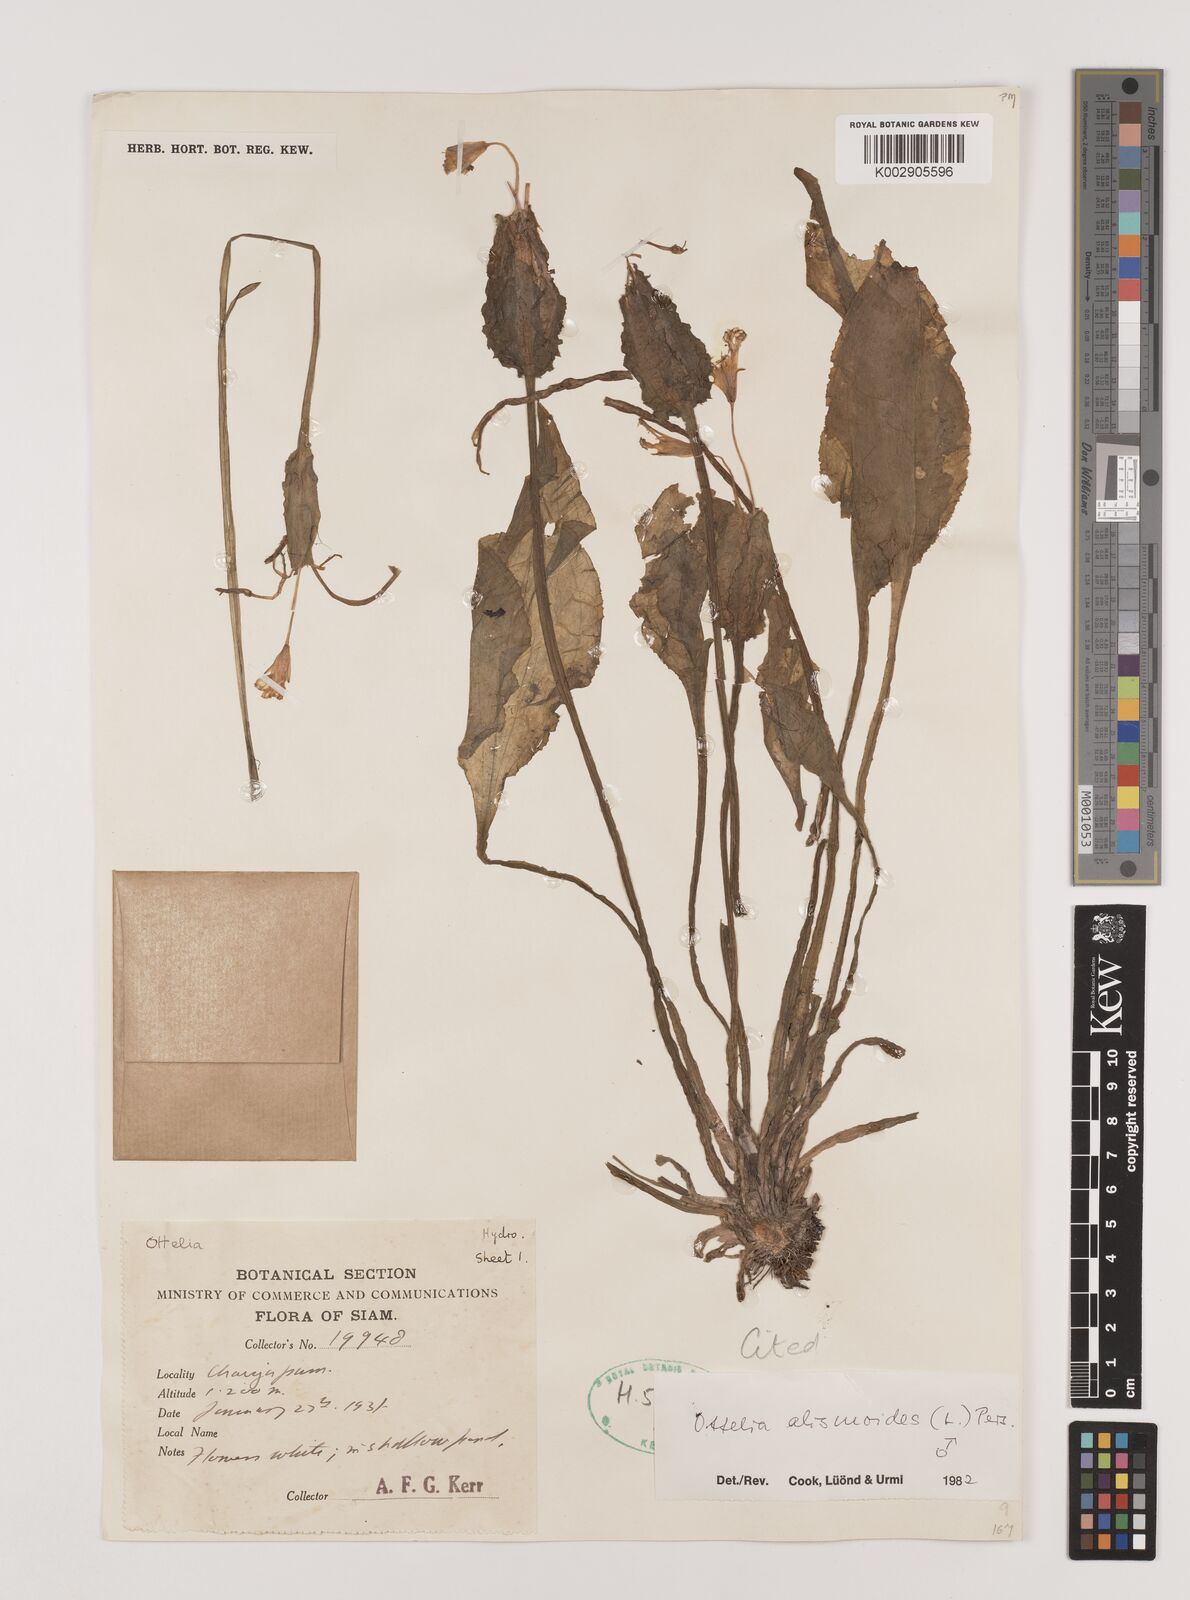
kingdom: Plantae
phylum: Tracheophyta
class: Liliopsida
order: Alismatales
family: Hydrocharitaceae
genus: Ottelia
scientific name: Ottelia alismoides
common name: Duck-lettuce
